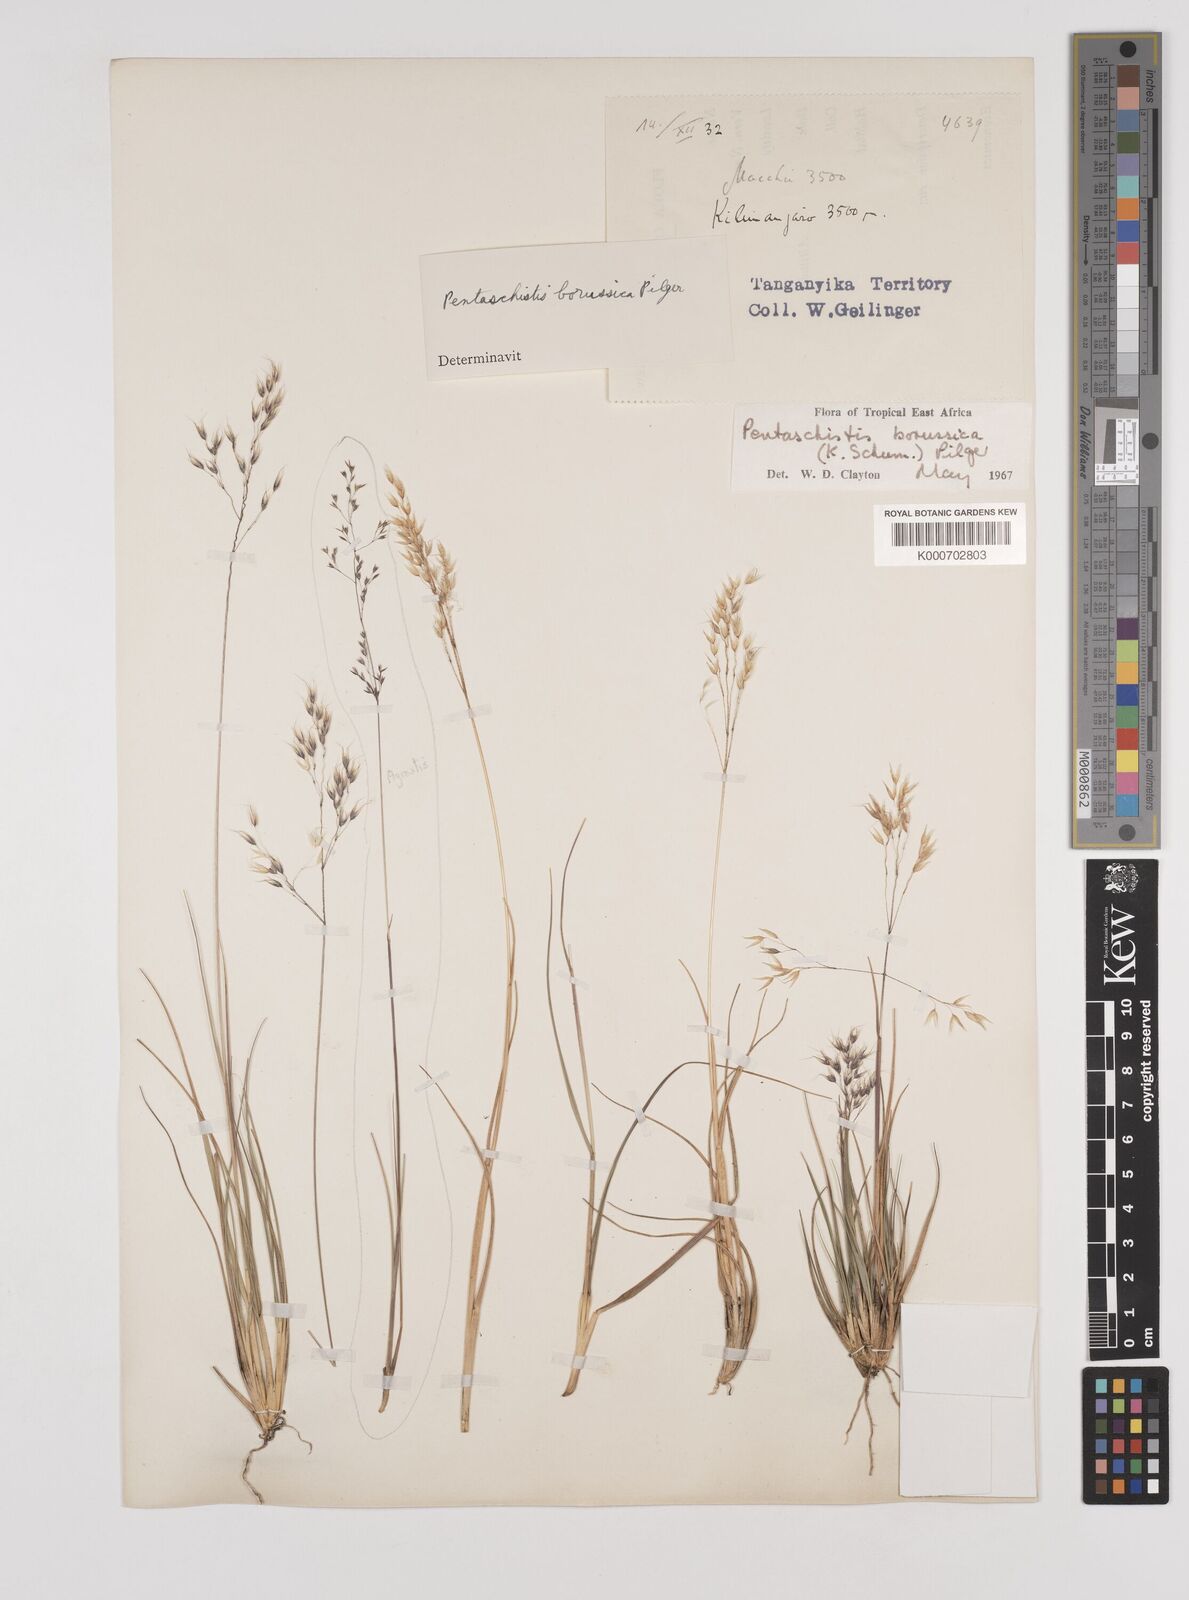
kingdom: Plantae
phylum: Tracheophyta
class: Liliopsida
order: Poales
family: Poaceae
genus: Pentameris
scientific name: Pentameris borussica
